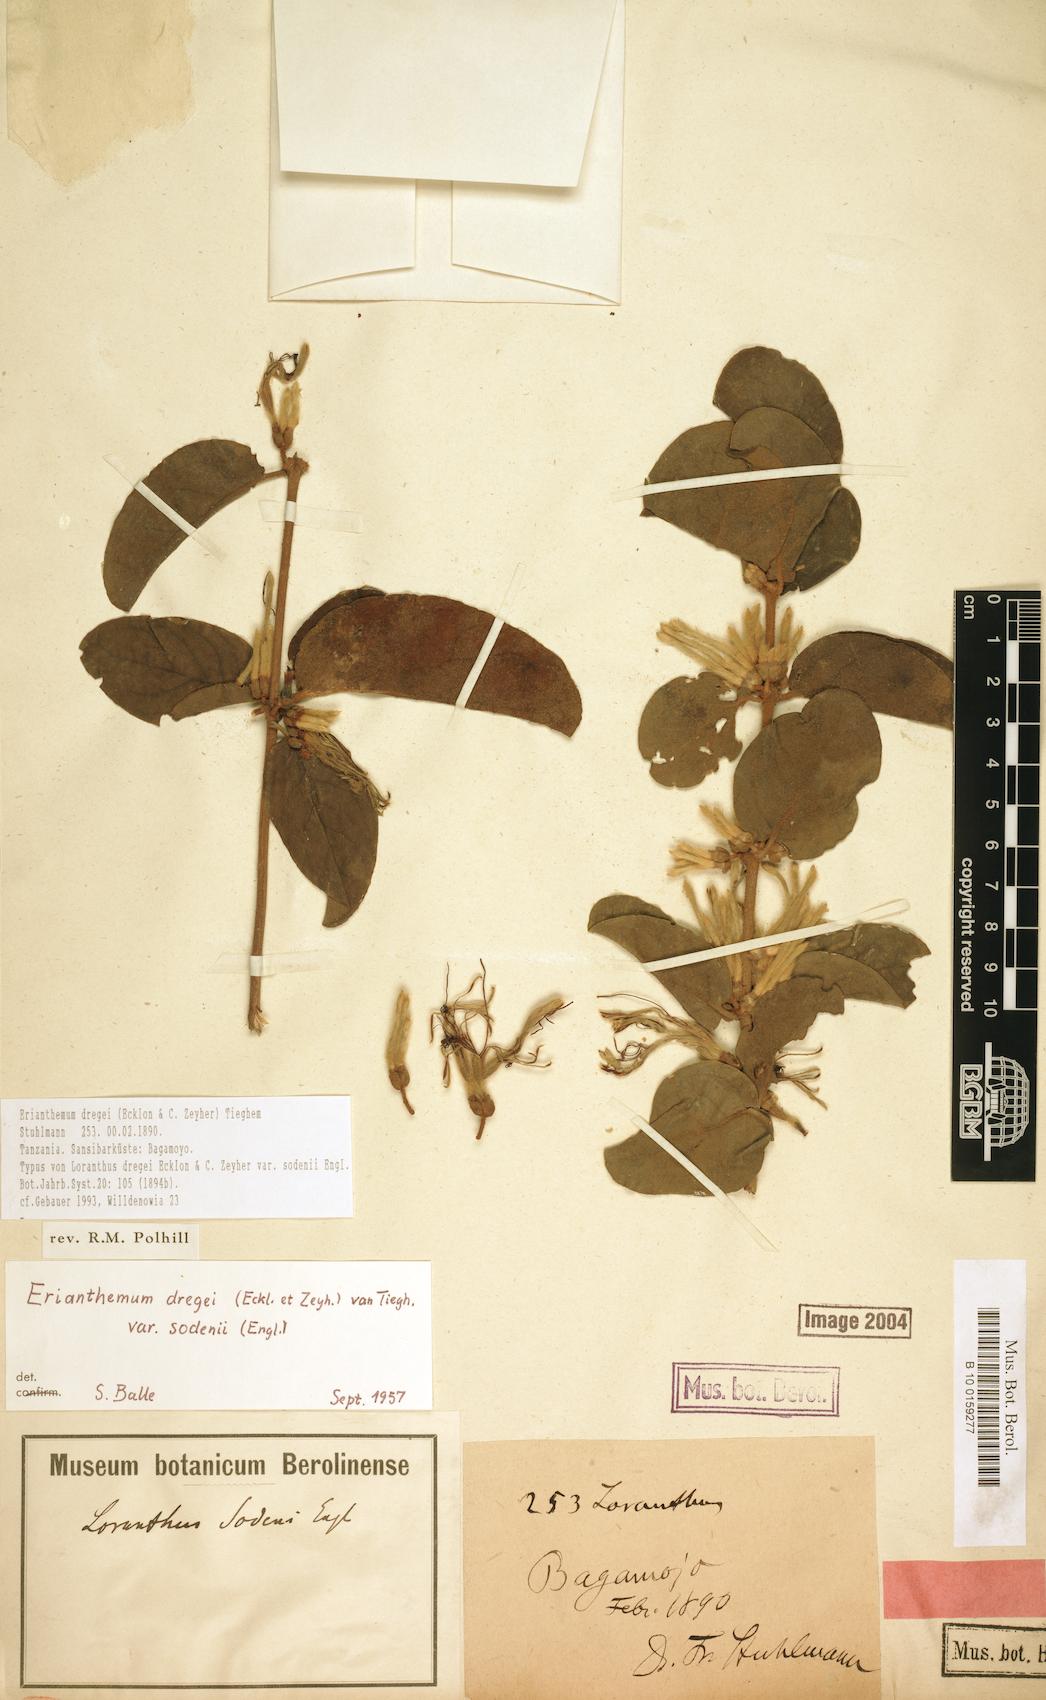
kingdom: Plantae
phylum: Tracheophyta
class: Magnoliopsida
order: Santalales
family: Loranthaceae
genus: Erianthemum
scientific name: Erianthemum dregei
